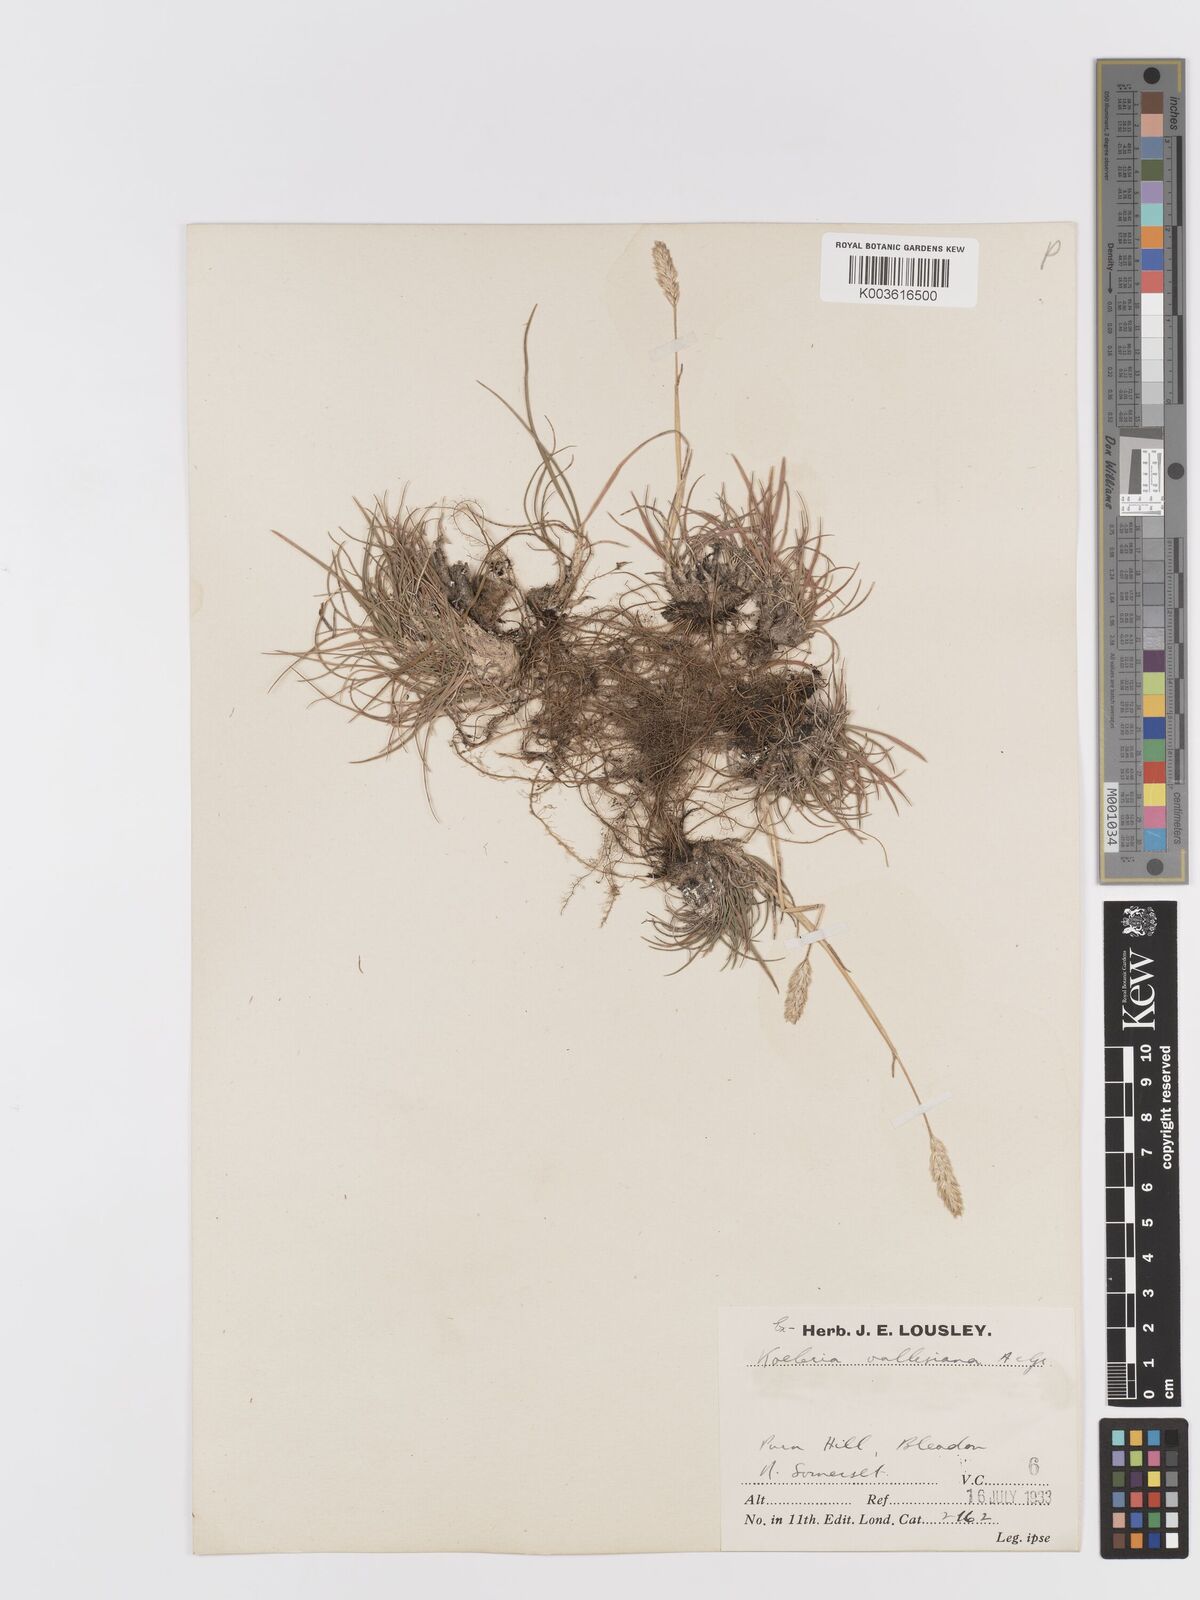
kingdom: Plantae
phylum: Tracheophyta
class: Liliopsida
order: Poales
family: Poaceae
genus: Koeleria
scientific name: Koeleria vallesiana
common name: Somerset hair-grass
